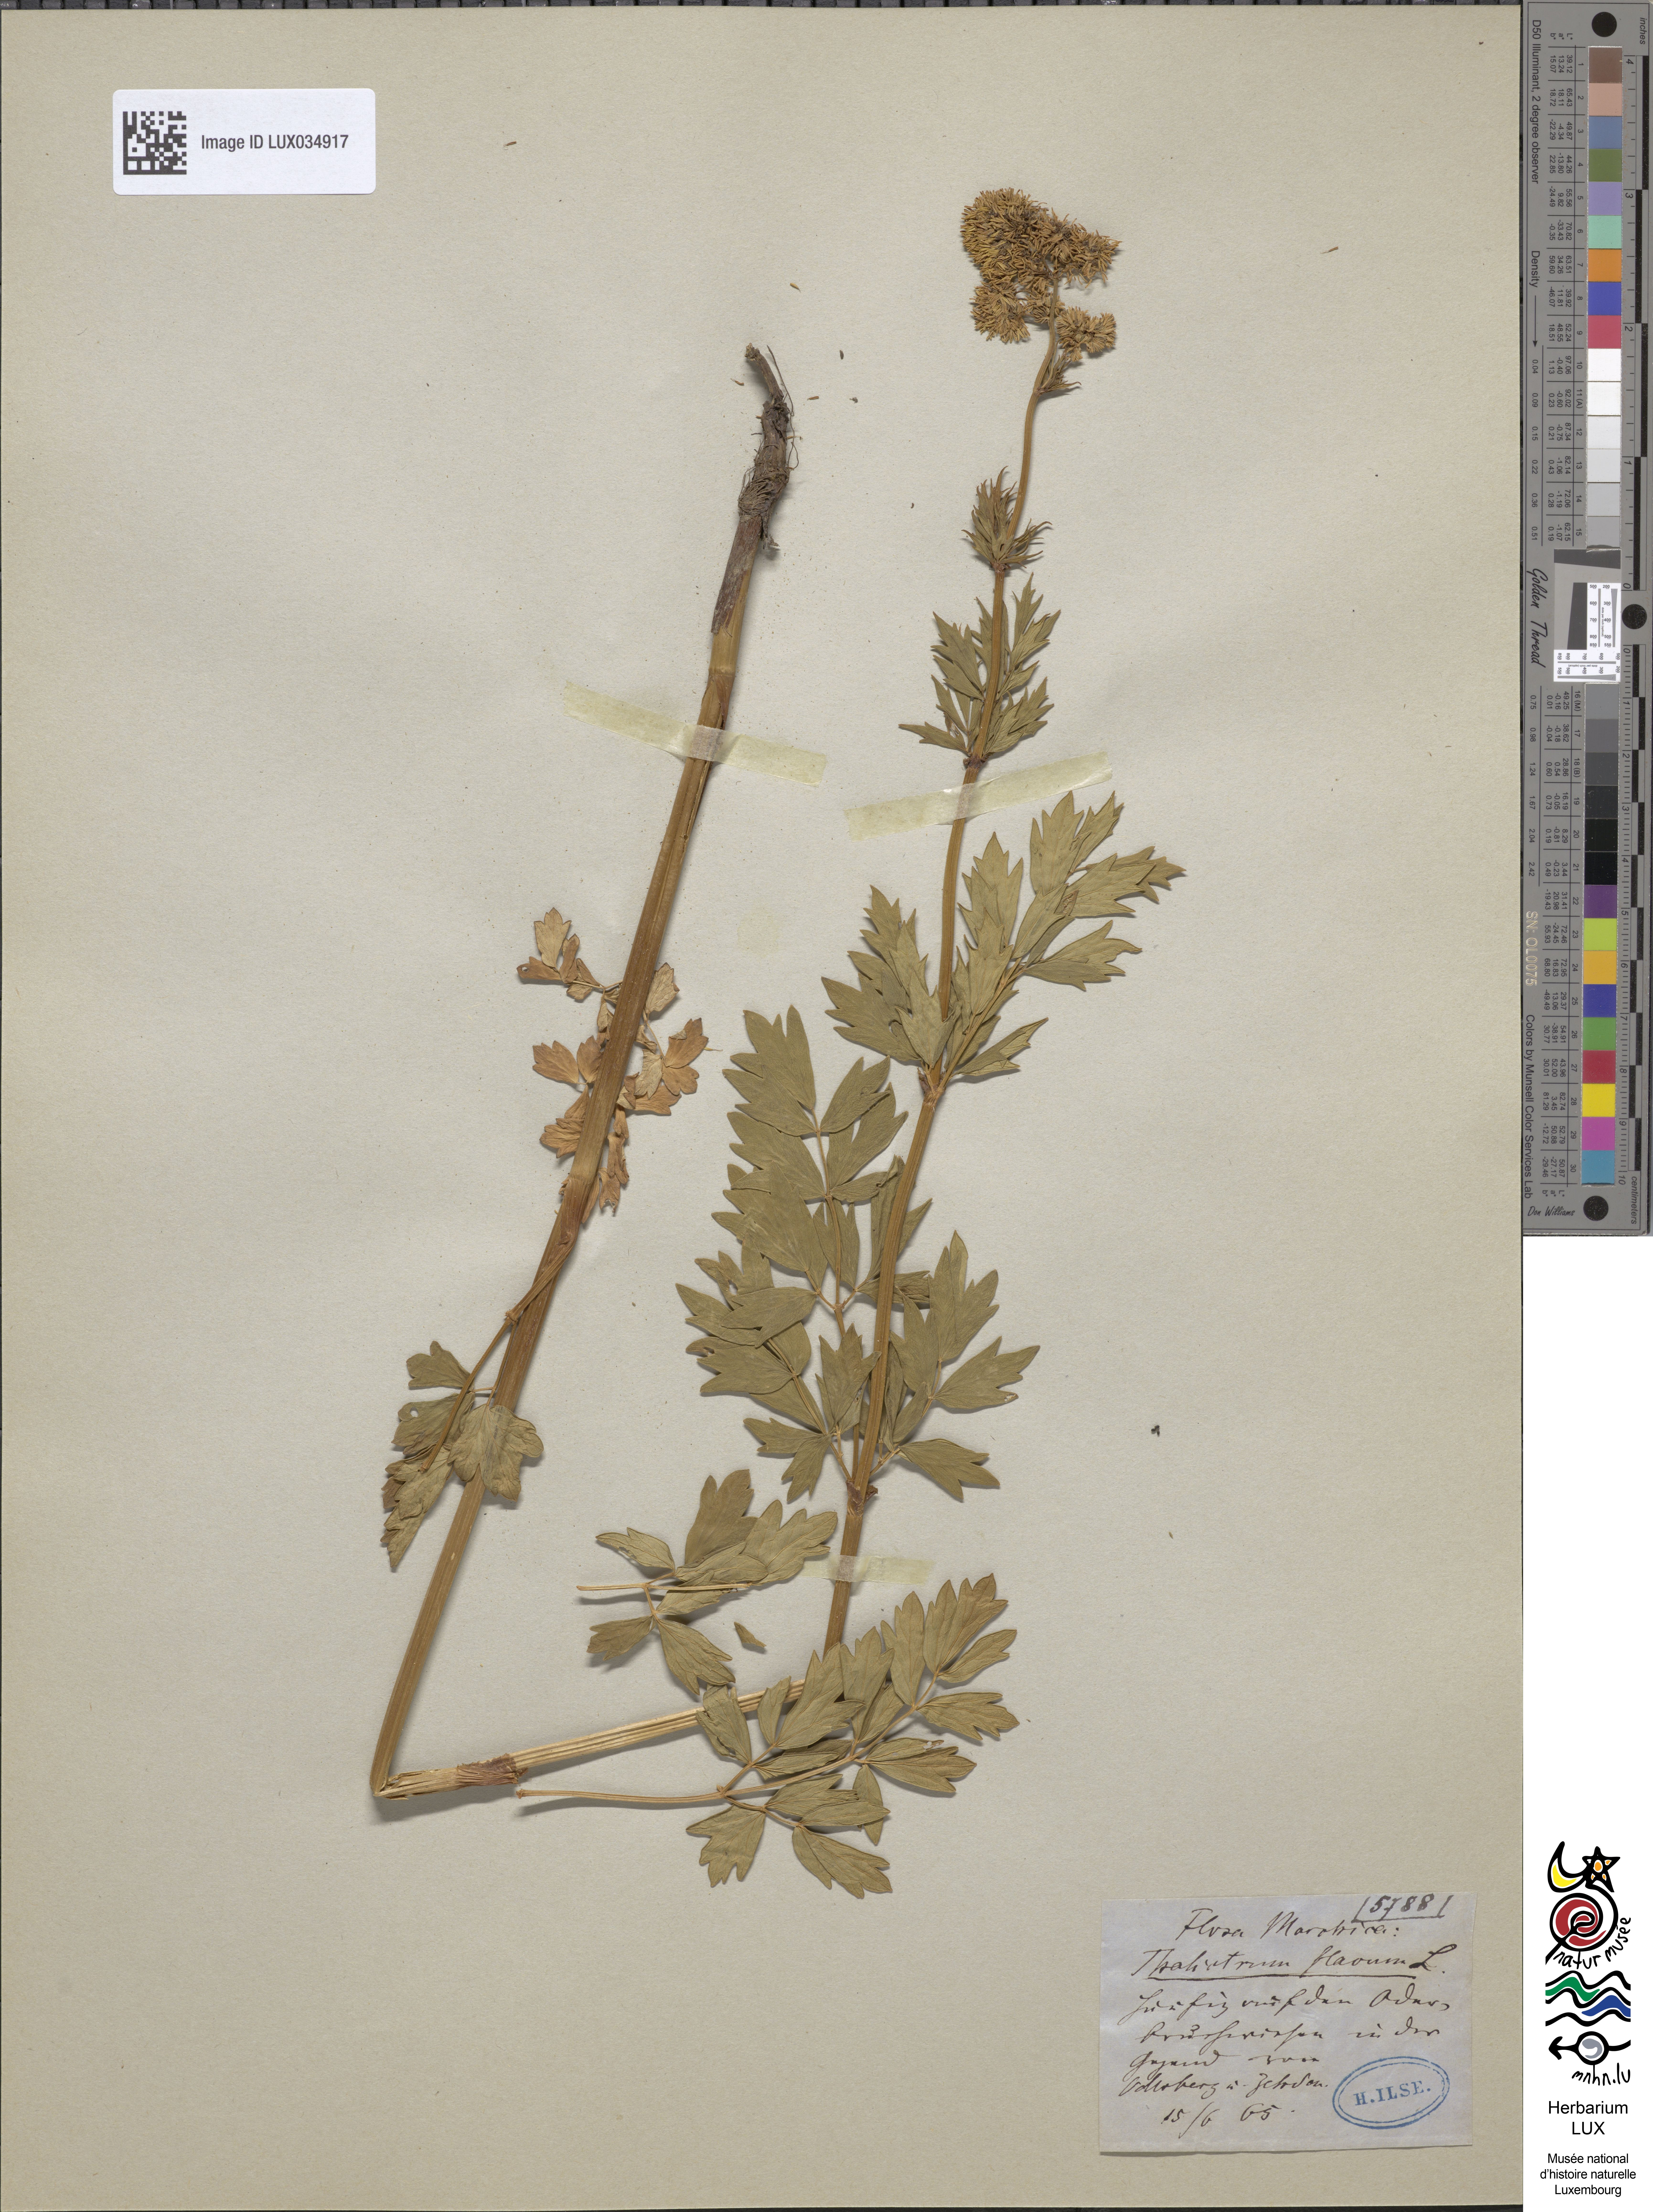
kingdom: Plantae
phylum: Tracheophyta
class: Magnoliopsida
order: Ranunculales
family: Ranunculaceae
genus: Thalictrum
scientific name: Thalictrum flavum
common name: Common meadow-rue
